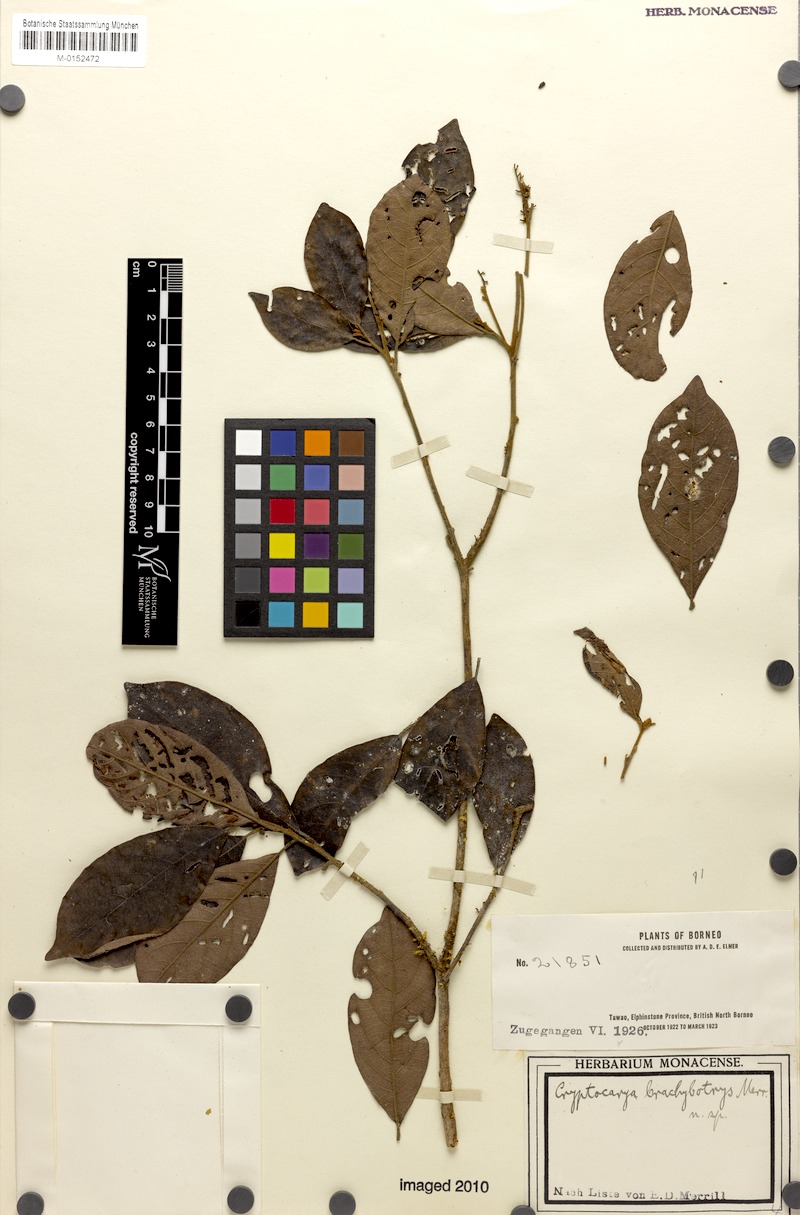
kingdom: Plantae
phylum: Tracheophyta
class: Magnoliopsida
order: Laurales
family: Lauraceae
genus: Beilschmiedia
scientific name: Beilschmiedia brachystachys
